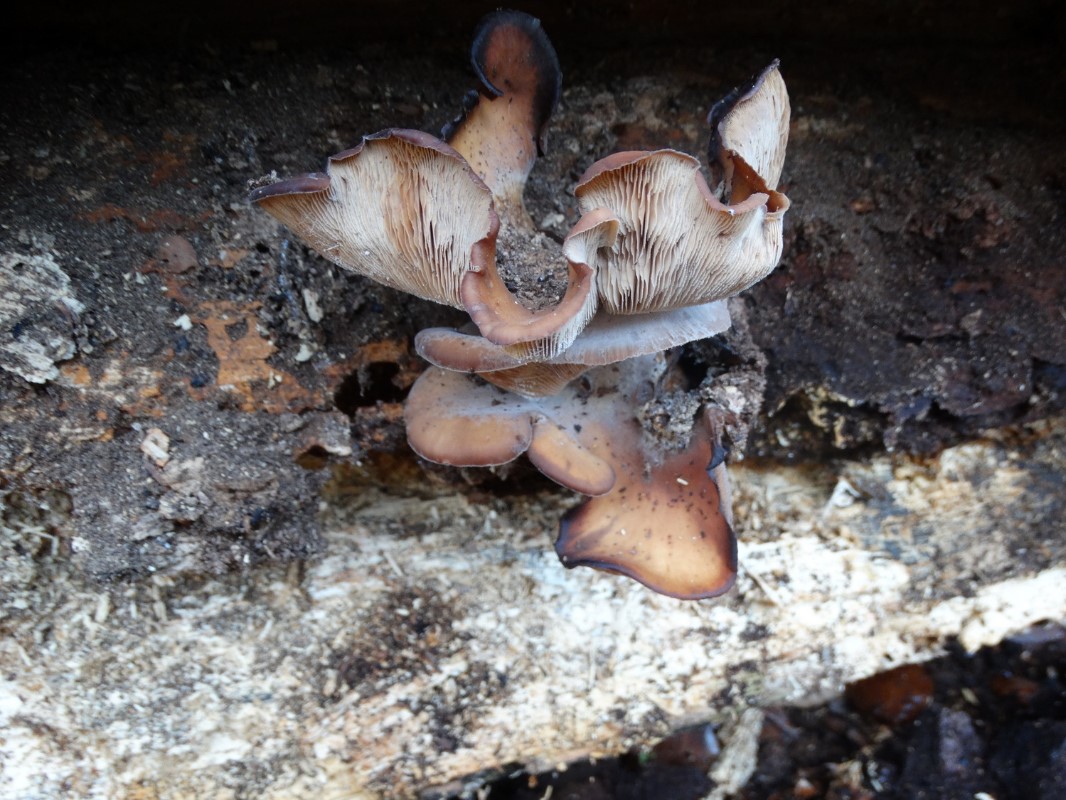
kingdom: Fungi
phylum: Basidiomycota
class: Agaricomycetes
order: Russulales
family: Auriscalpiaceae
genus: Lentinellus
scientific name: Lentinellus ursinus
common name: børstehåret savbladhat
